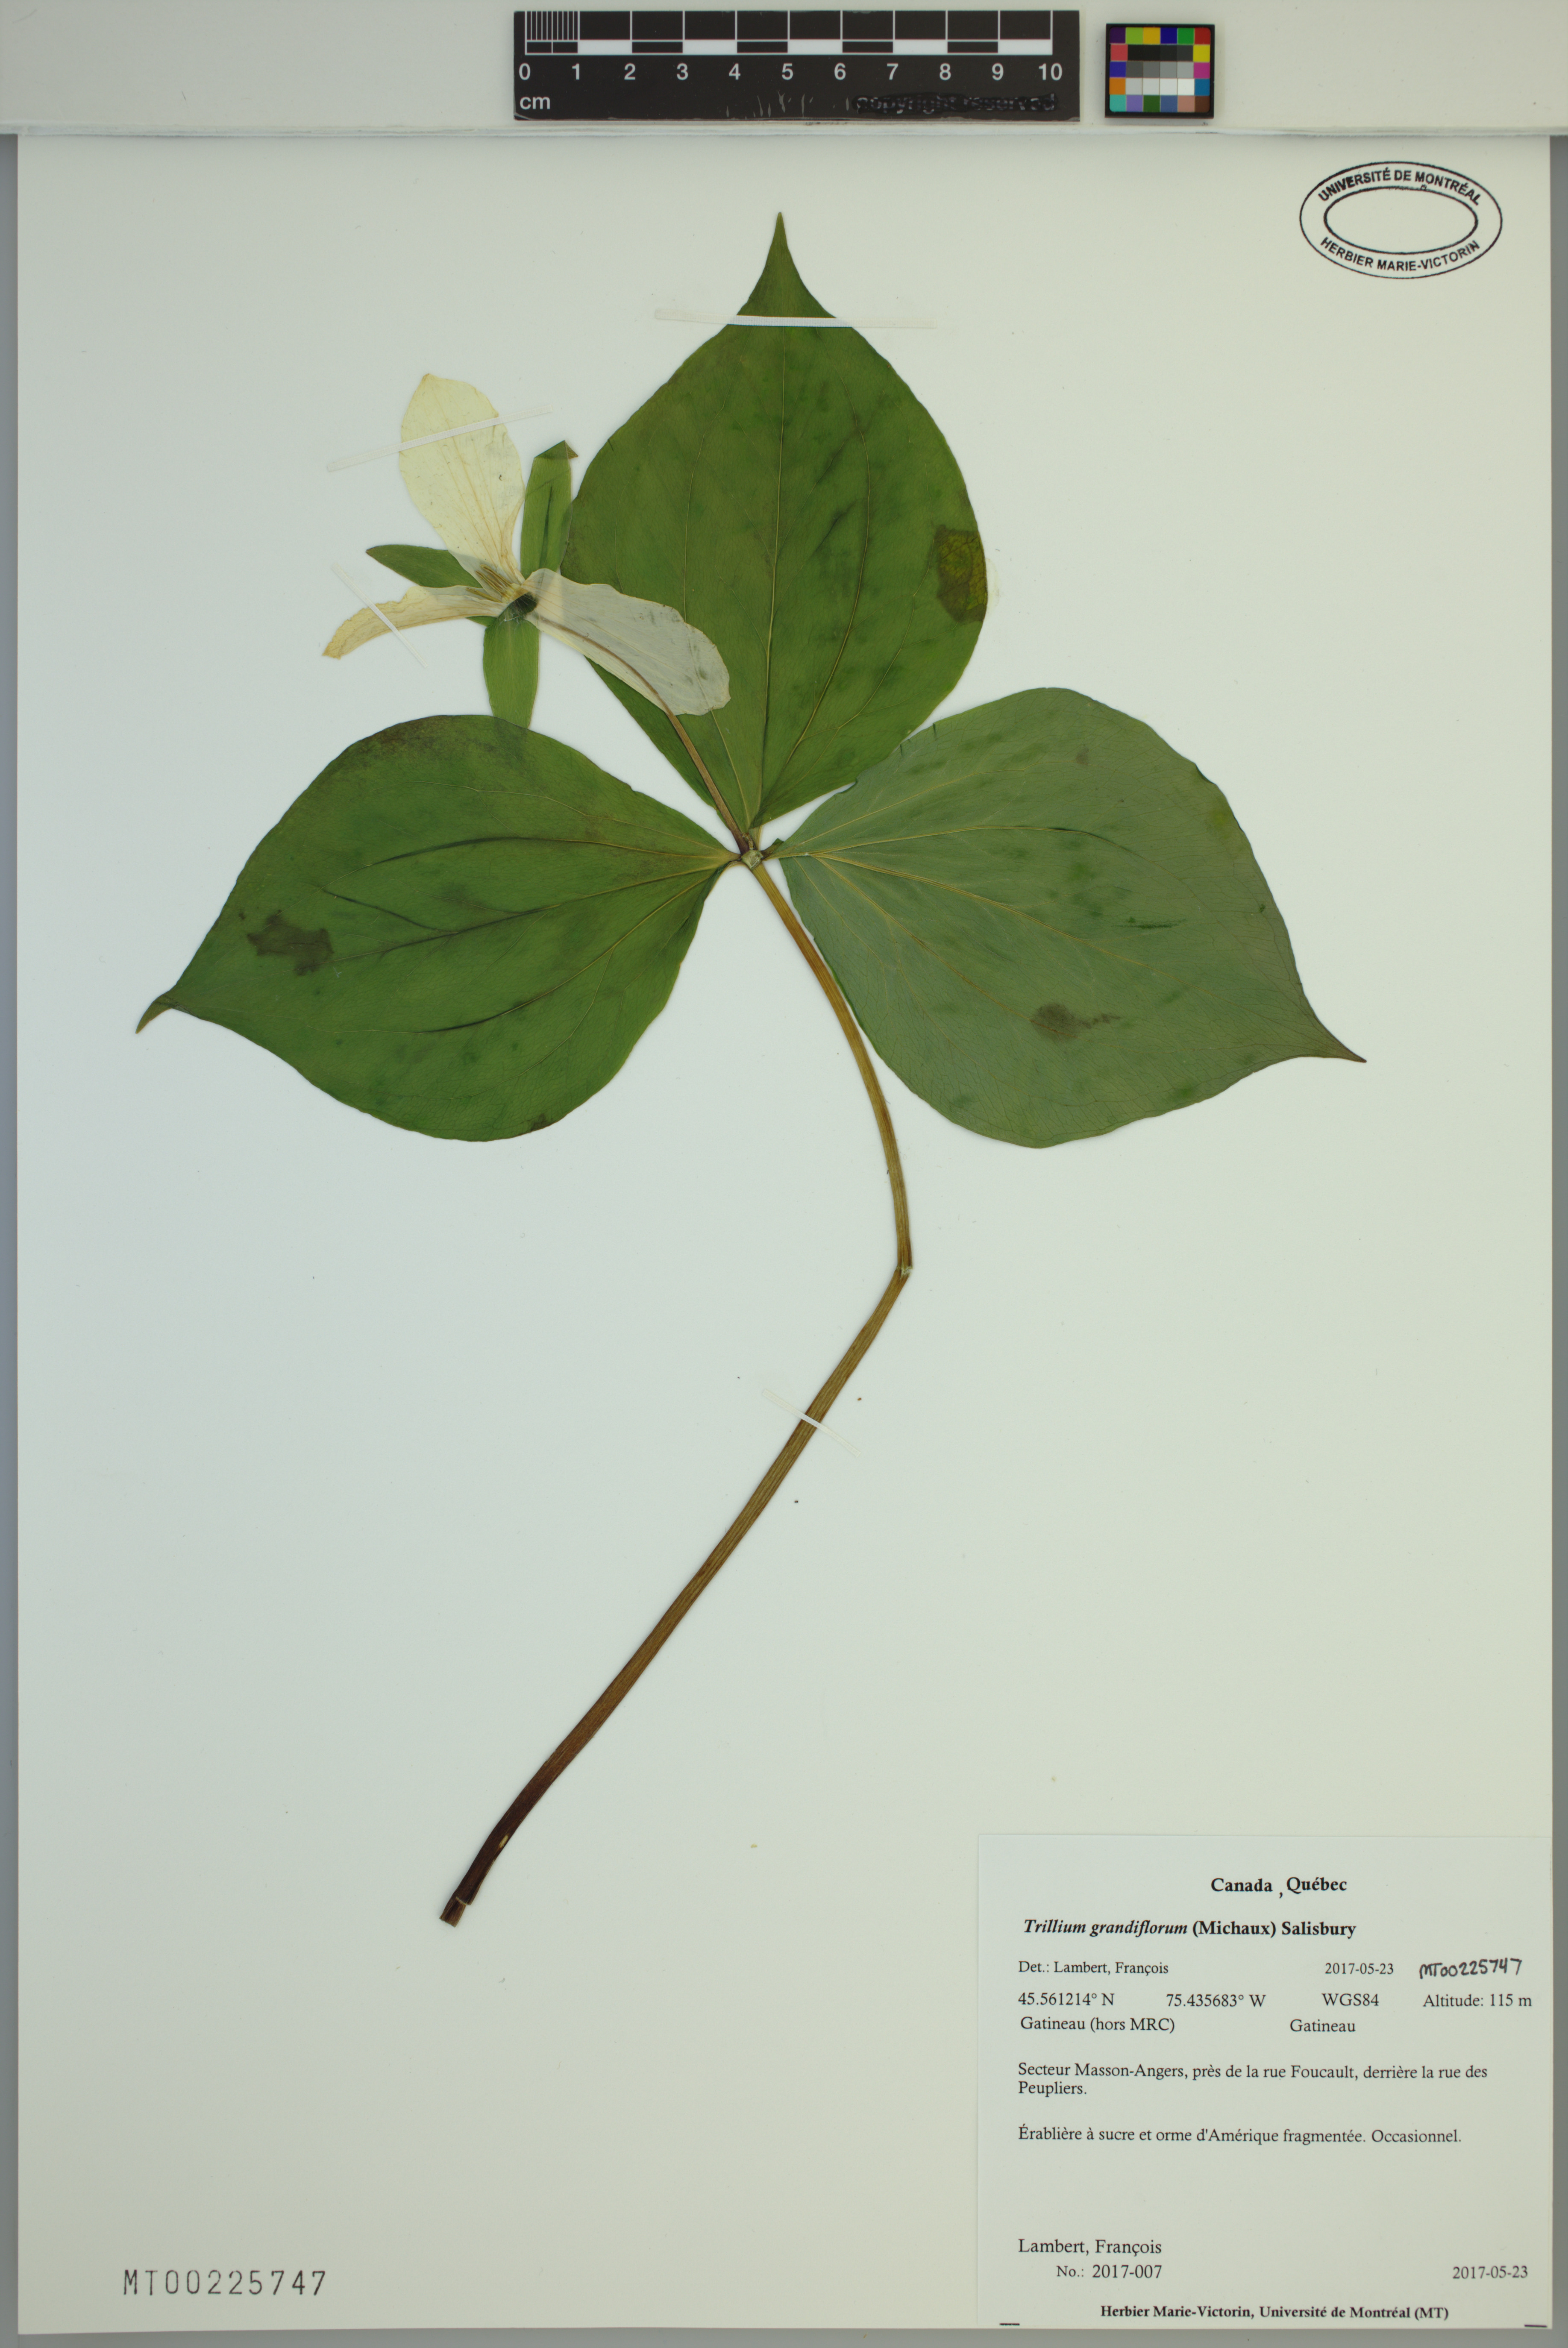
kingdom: Plantae
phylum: Tracheophyta
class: Liliopsida
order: Liliales
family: Melanthiaceae
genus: Trillium
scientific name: Trillium grandiflorum
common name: Great white trillium
